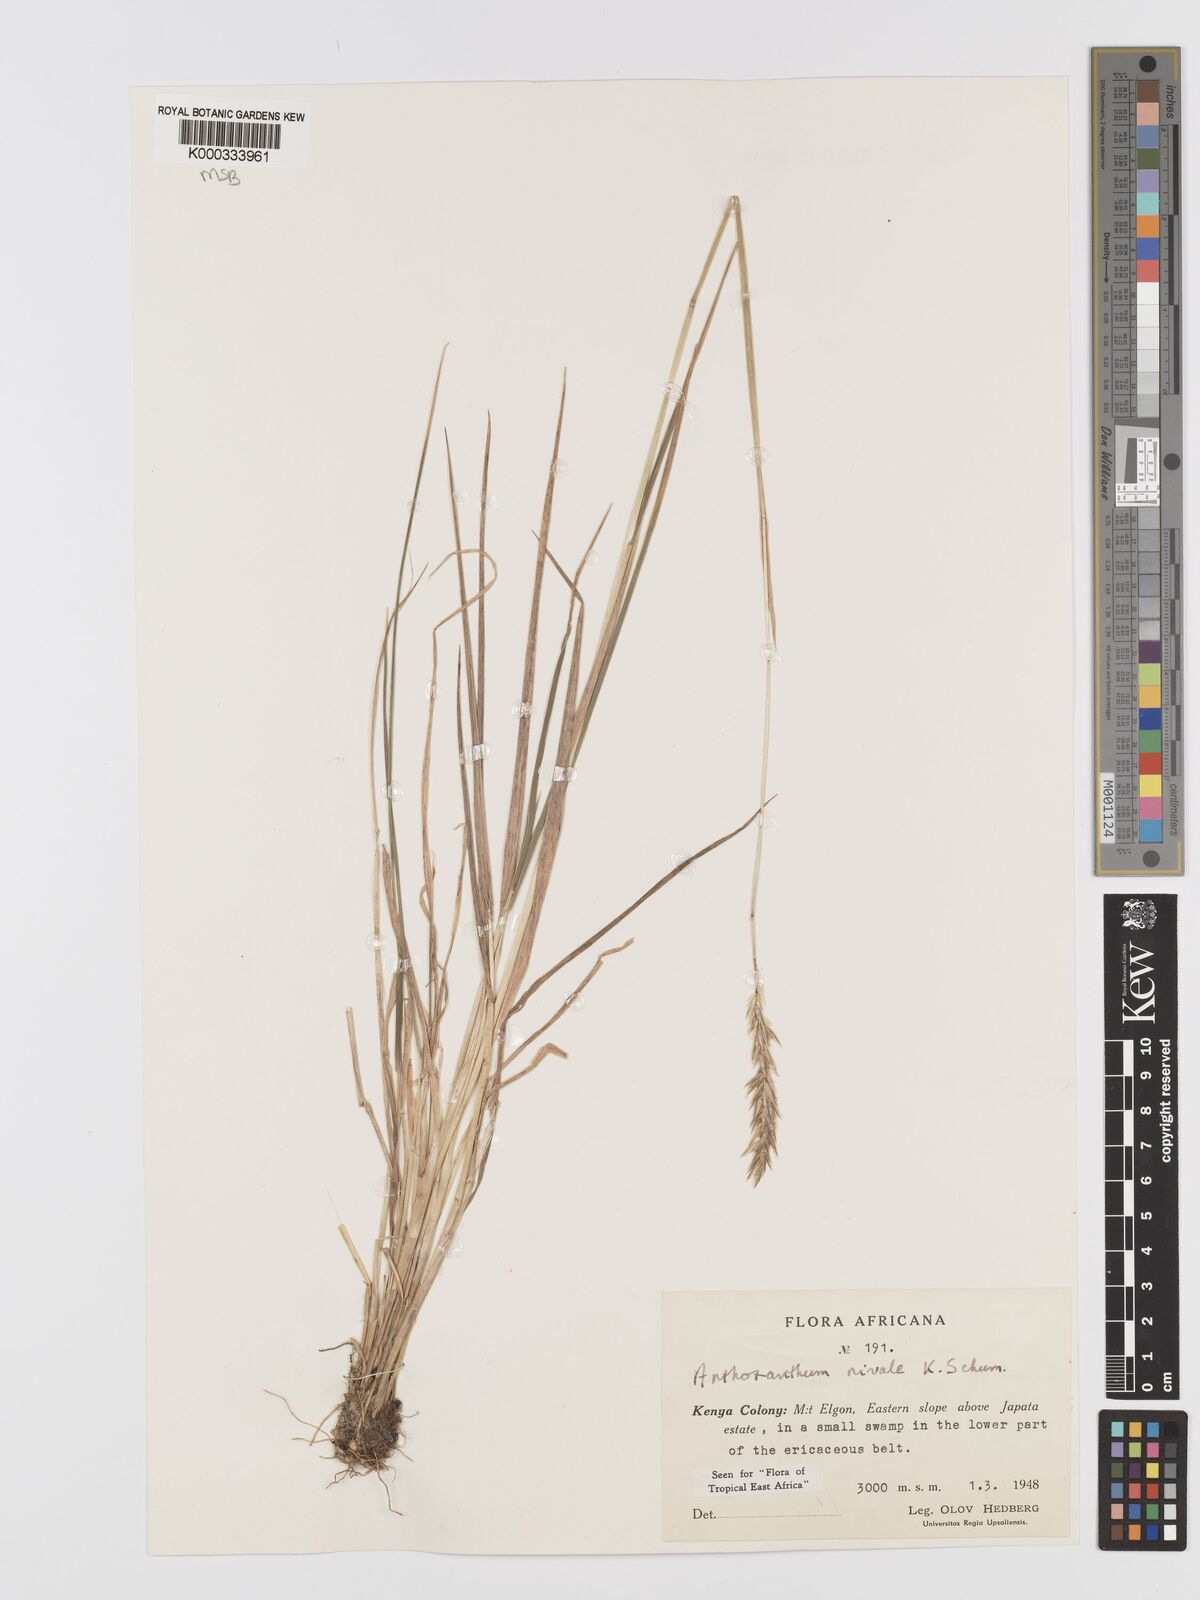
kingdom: Plantae
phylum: Tracheophyta
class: Liliopsida
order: Poales
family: Poaceae
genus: Anthoxanthum
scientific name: Anthoxanthum
